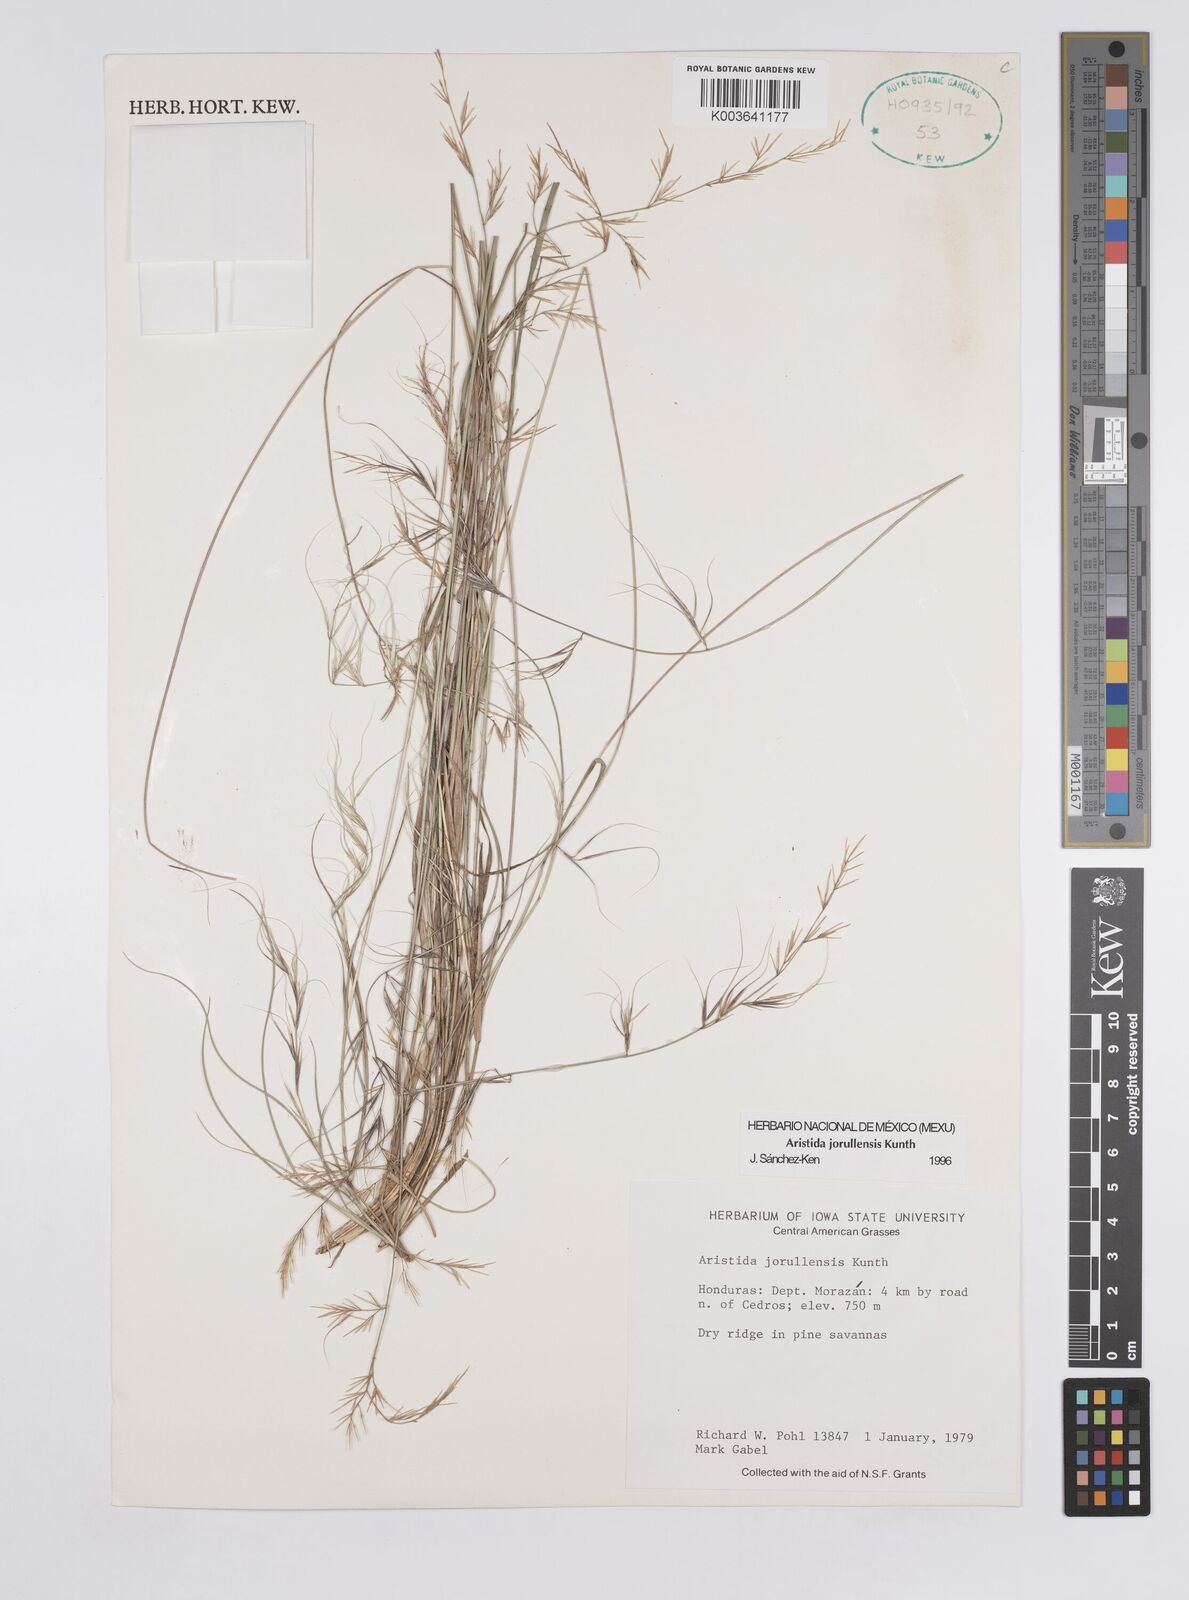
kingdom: Plantae
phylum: Tracheophyta
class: Liliopsida
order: Poales
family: Poaceae
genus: Aristida
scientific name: Aristida jorullensis
